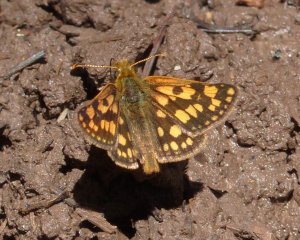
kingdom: Animalia
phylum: Arthropoda
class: Insecta
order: Lepidoptera
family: Hesperiidae
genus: Carterocephalus
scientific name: Carterocephalus palaemon
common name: Chequered Skipper
